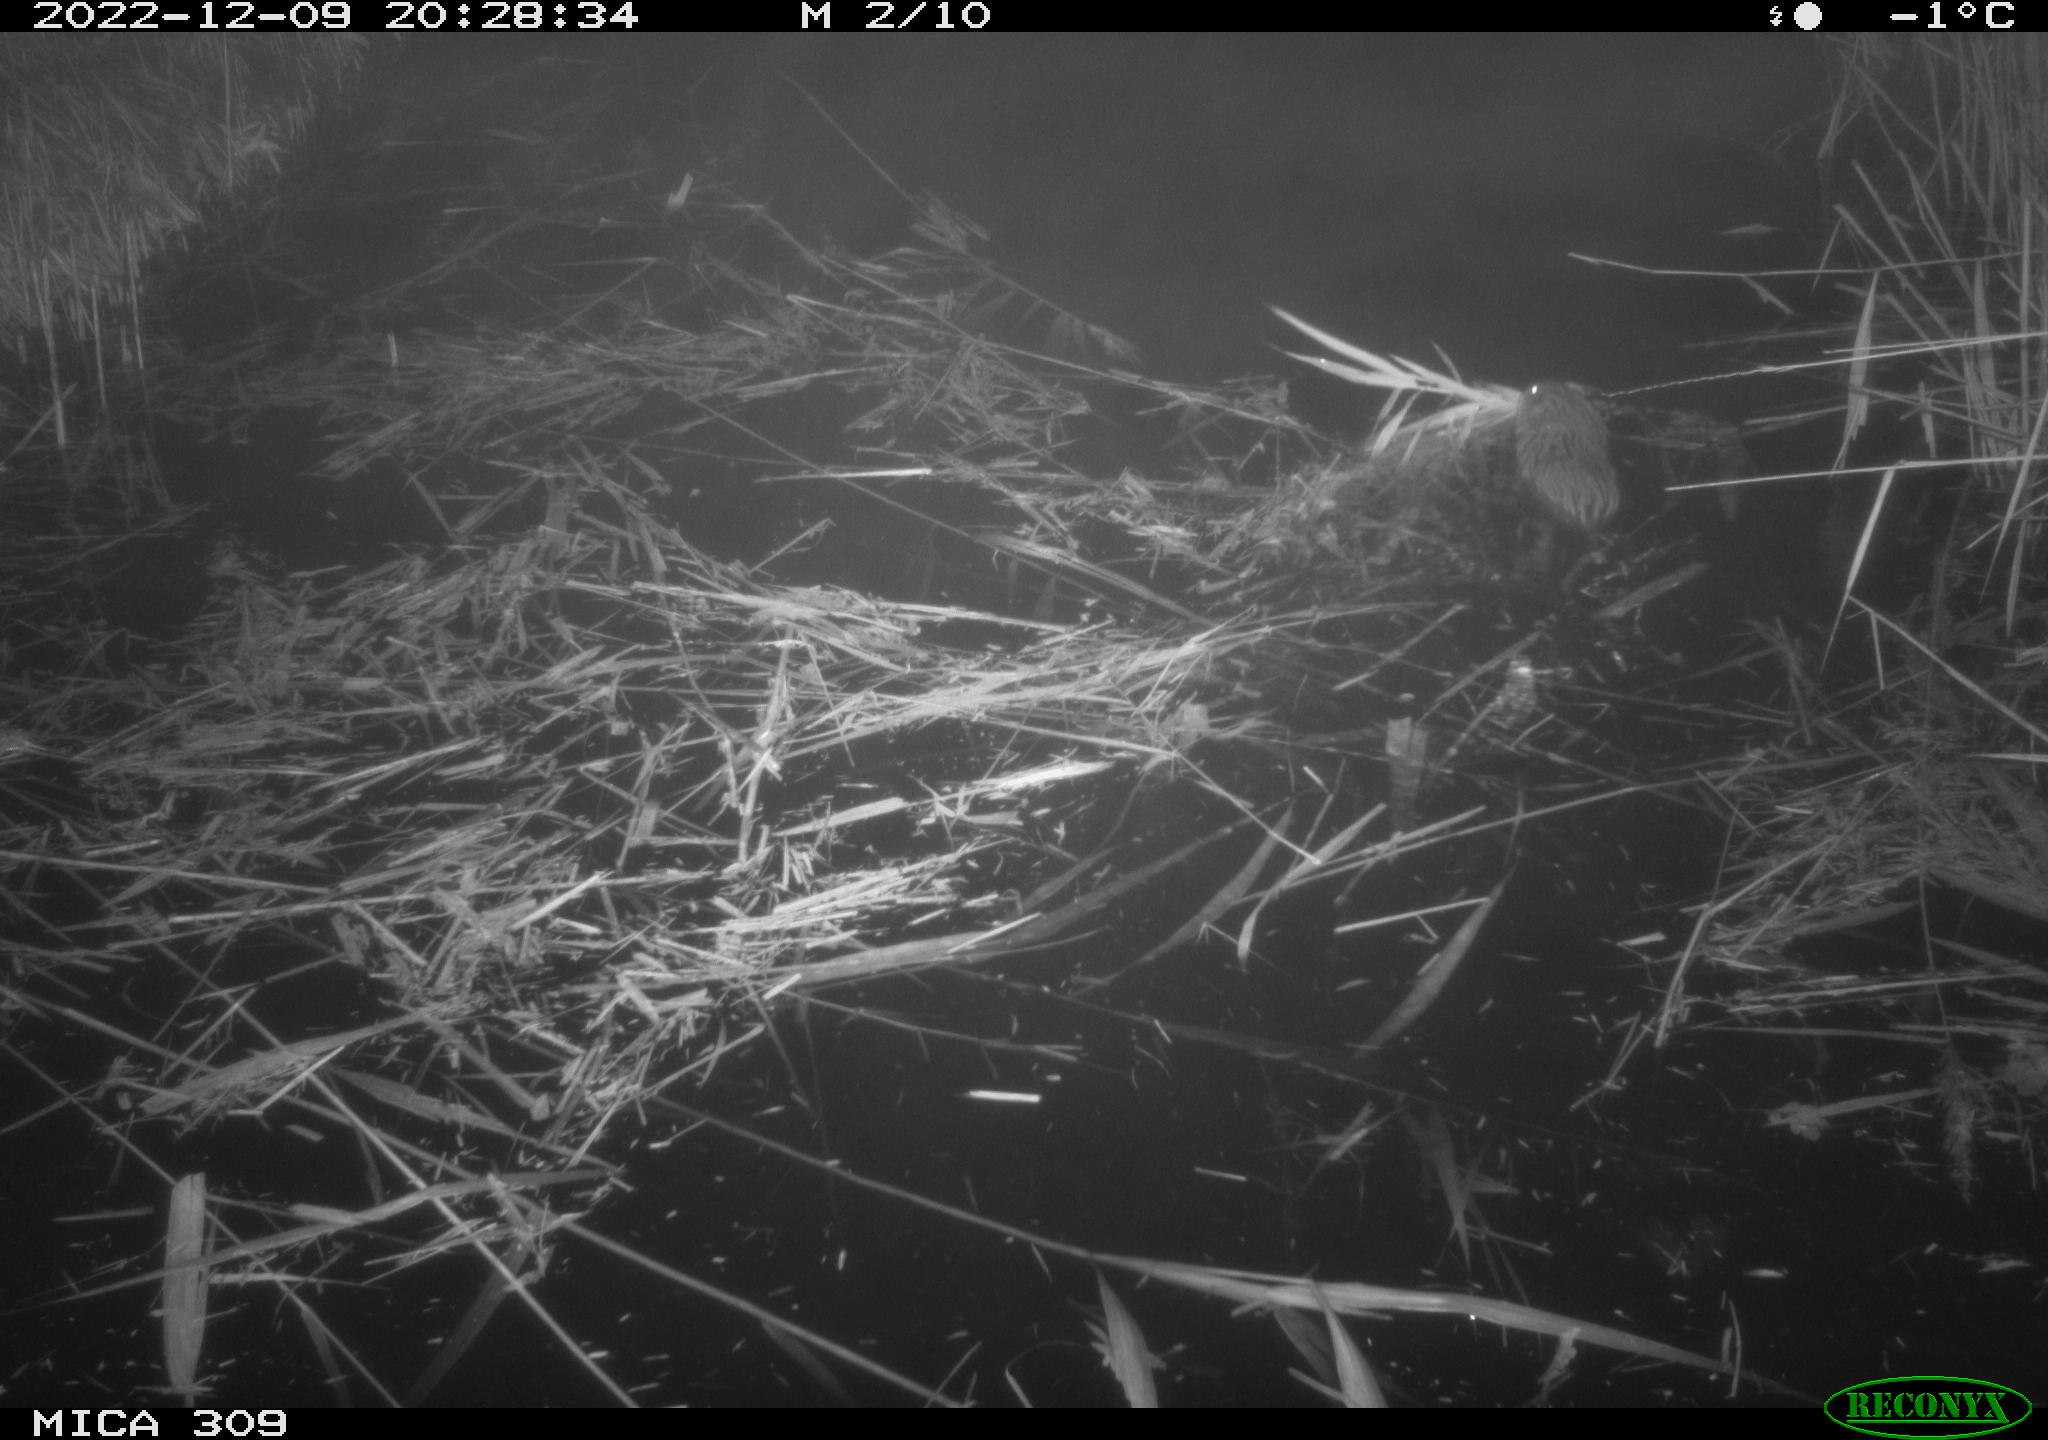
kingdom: Animalia
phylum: Chordata
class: Mammalia
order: Rodentia
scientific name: Rodentia
